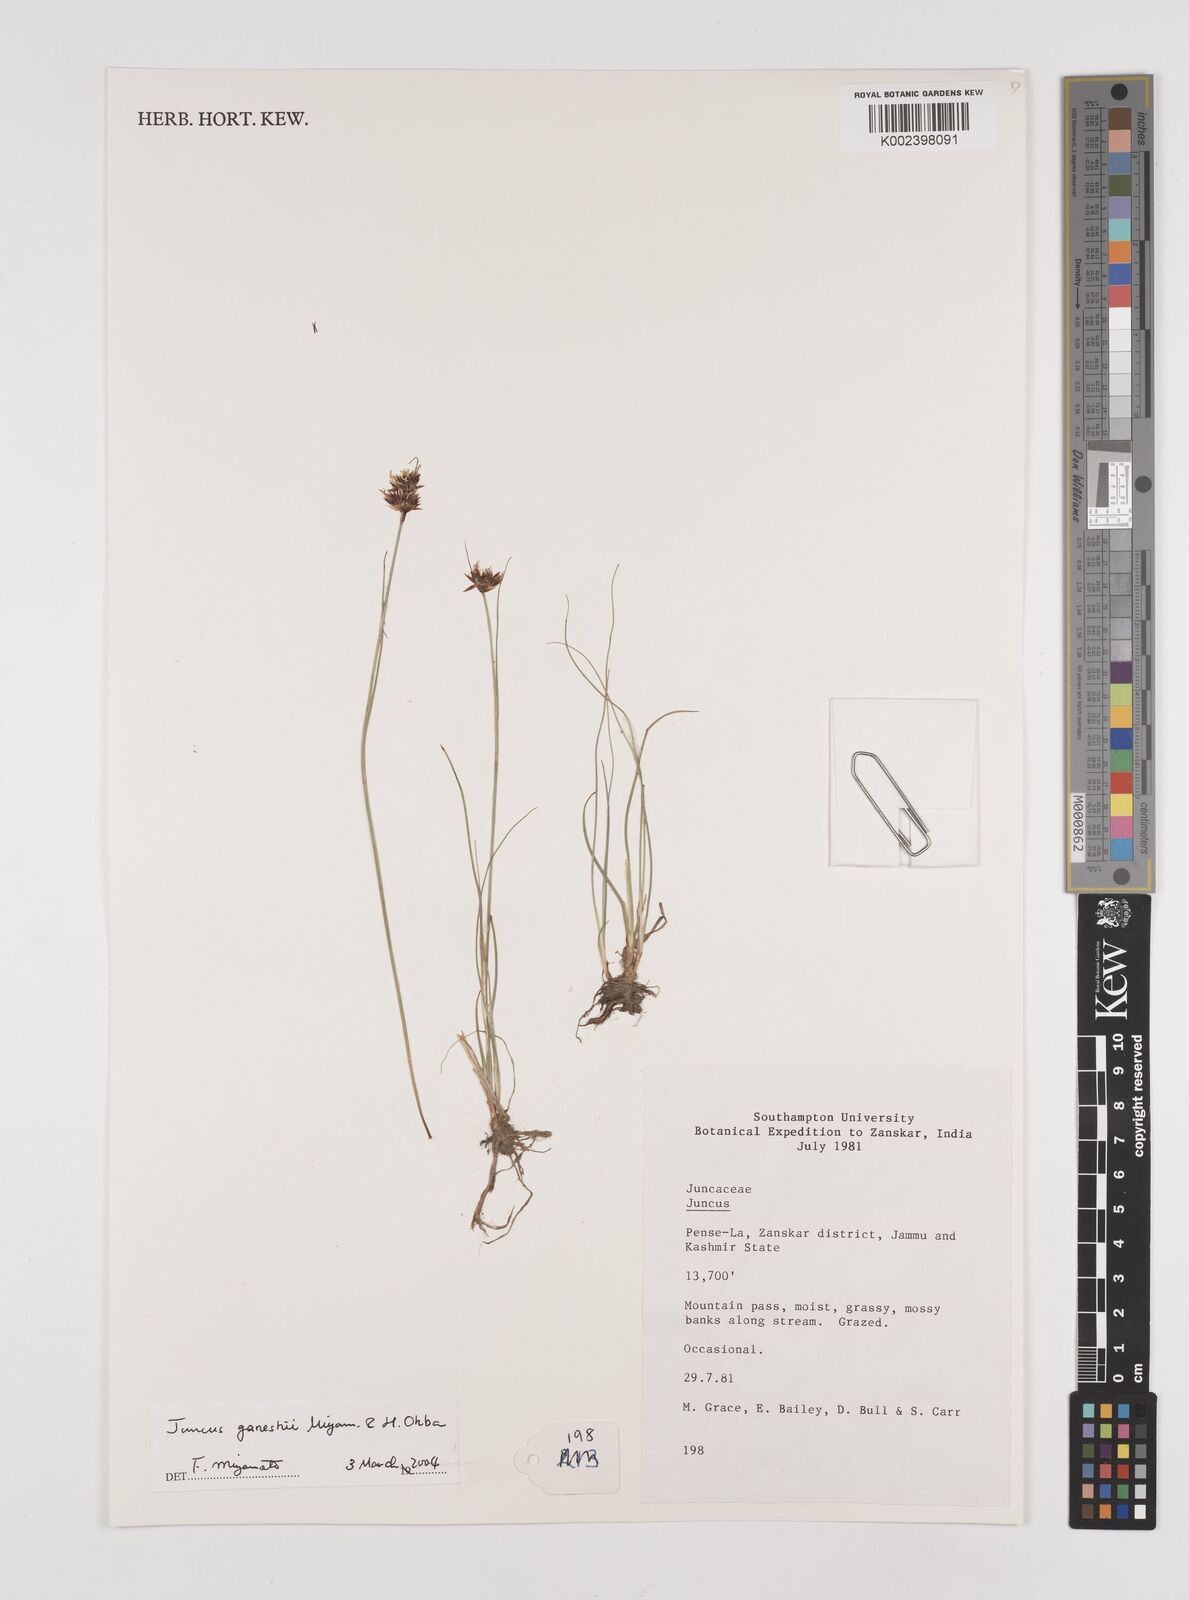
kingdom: Plantae
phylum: Tracheophyta
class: Liliopsida
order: Poales
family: Juncaceae
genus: Juncus
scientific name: Juncus
